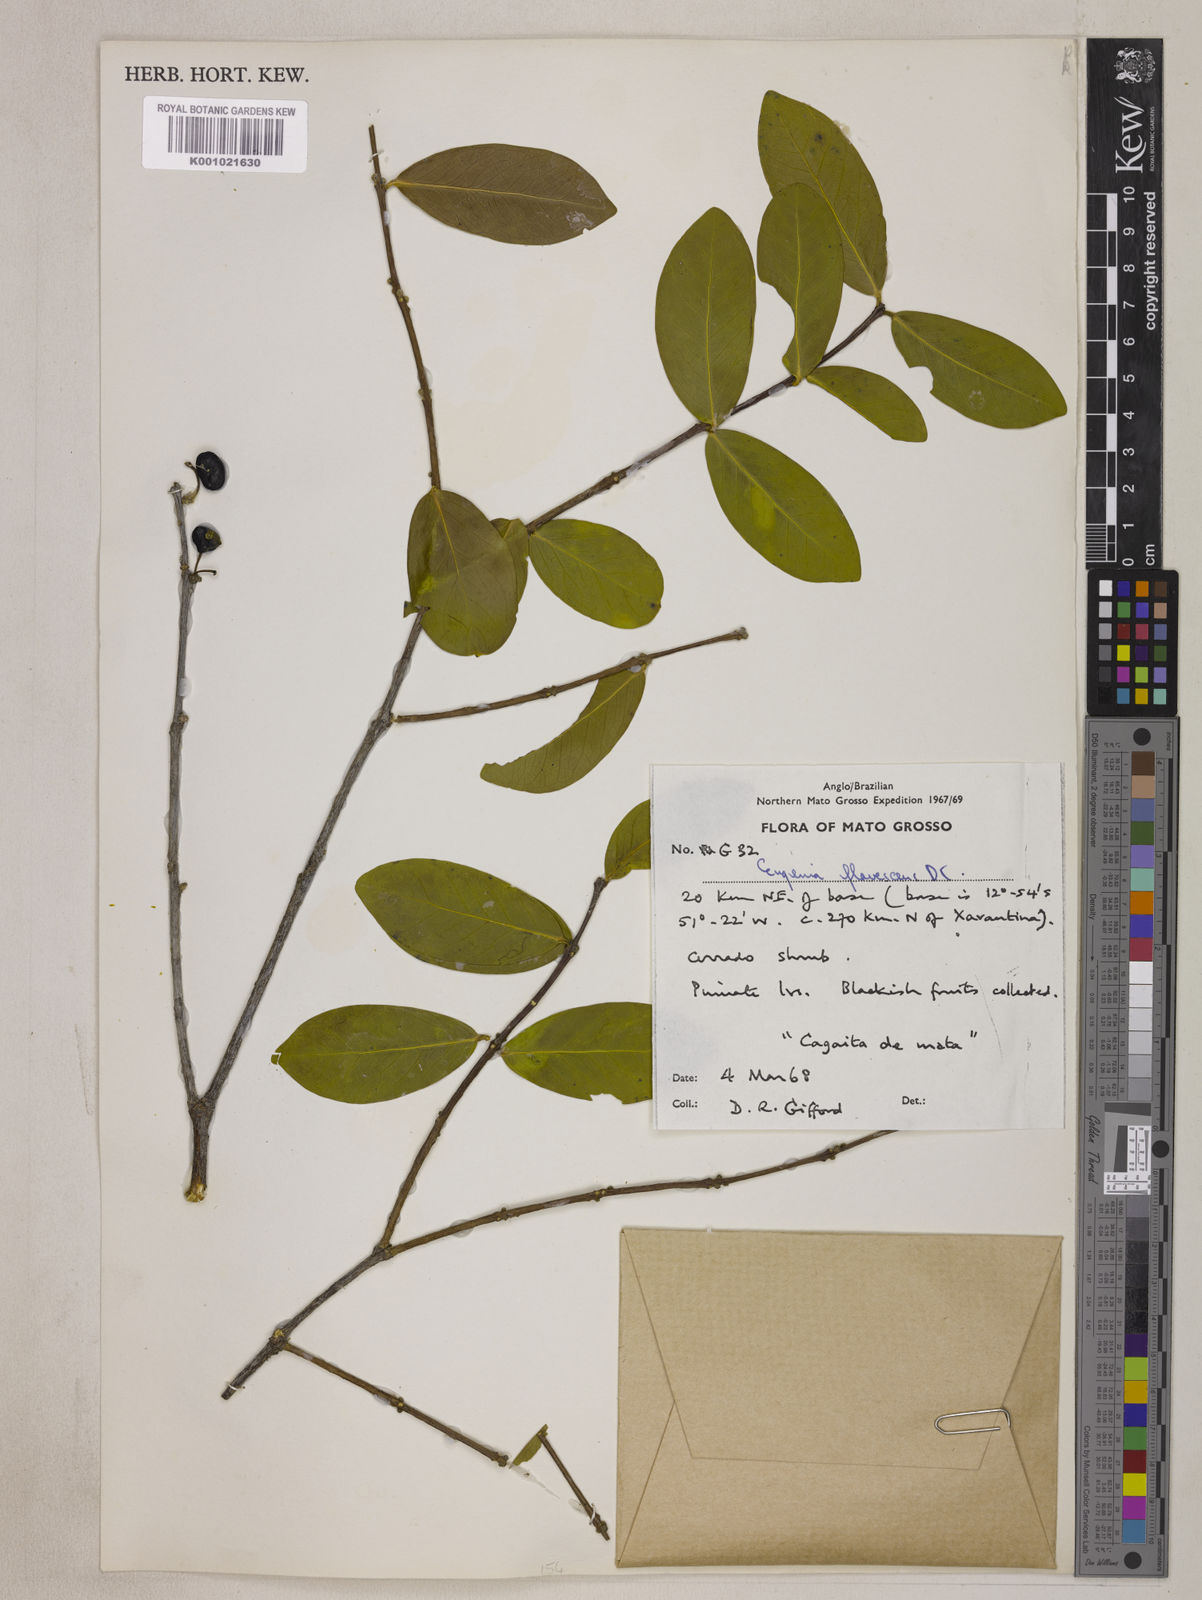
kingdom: Plantae
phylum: Tracheophyta
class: Magnoliopsida
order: Myrtales
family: Myrtaceae
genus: Eugenia
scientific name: Eugenia flavescens
